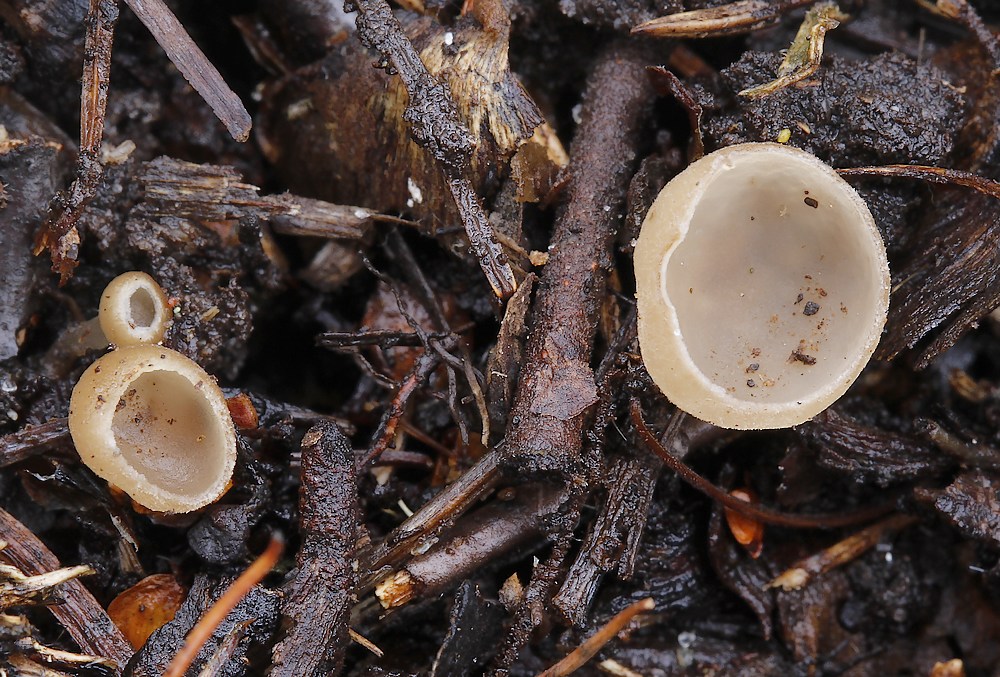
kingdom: Fungi
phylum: Ascomycota
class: Leotiomycetes
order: Helotiales
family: Sclerotiniaceae
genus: Ciboria
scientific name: Ciboria amentacea
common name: ellerakle-knoldskive
